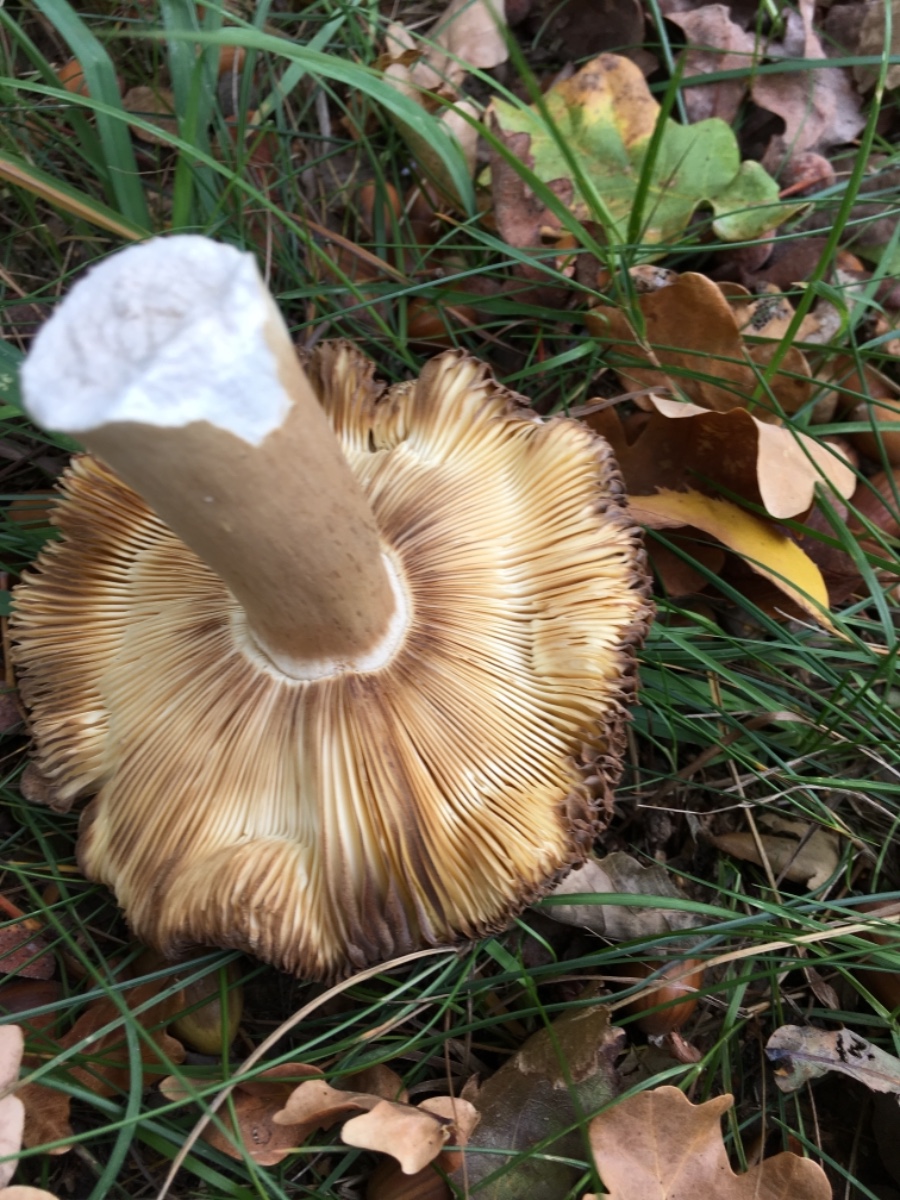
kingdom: Fungi
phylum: Basidiomycota
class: Agaricomycetes
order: Russulales
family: Russulaceae
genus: Russula
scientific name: Russula
